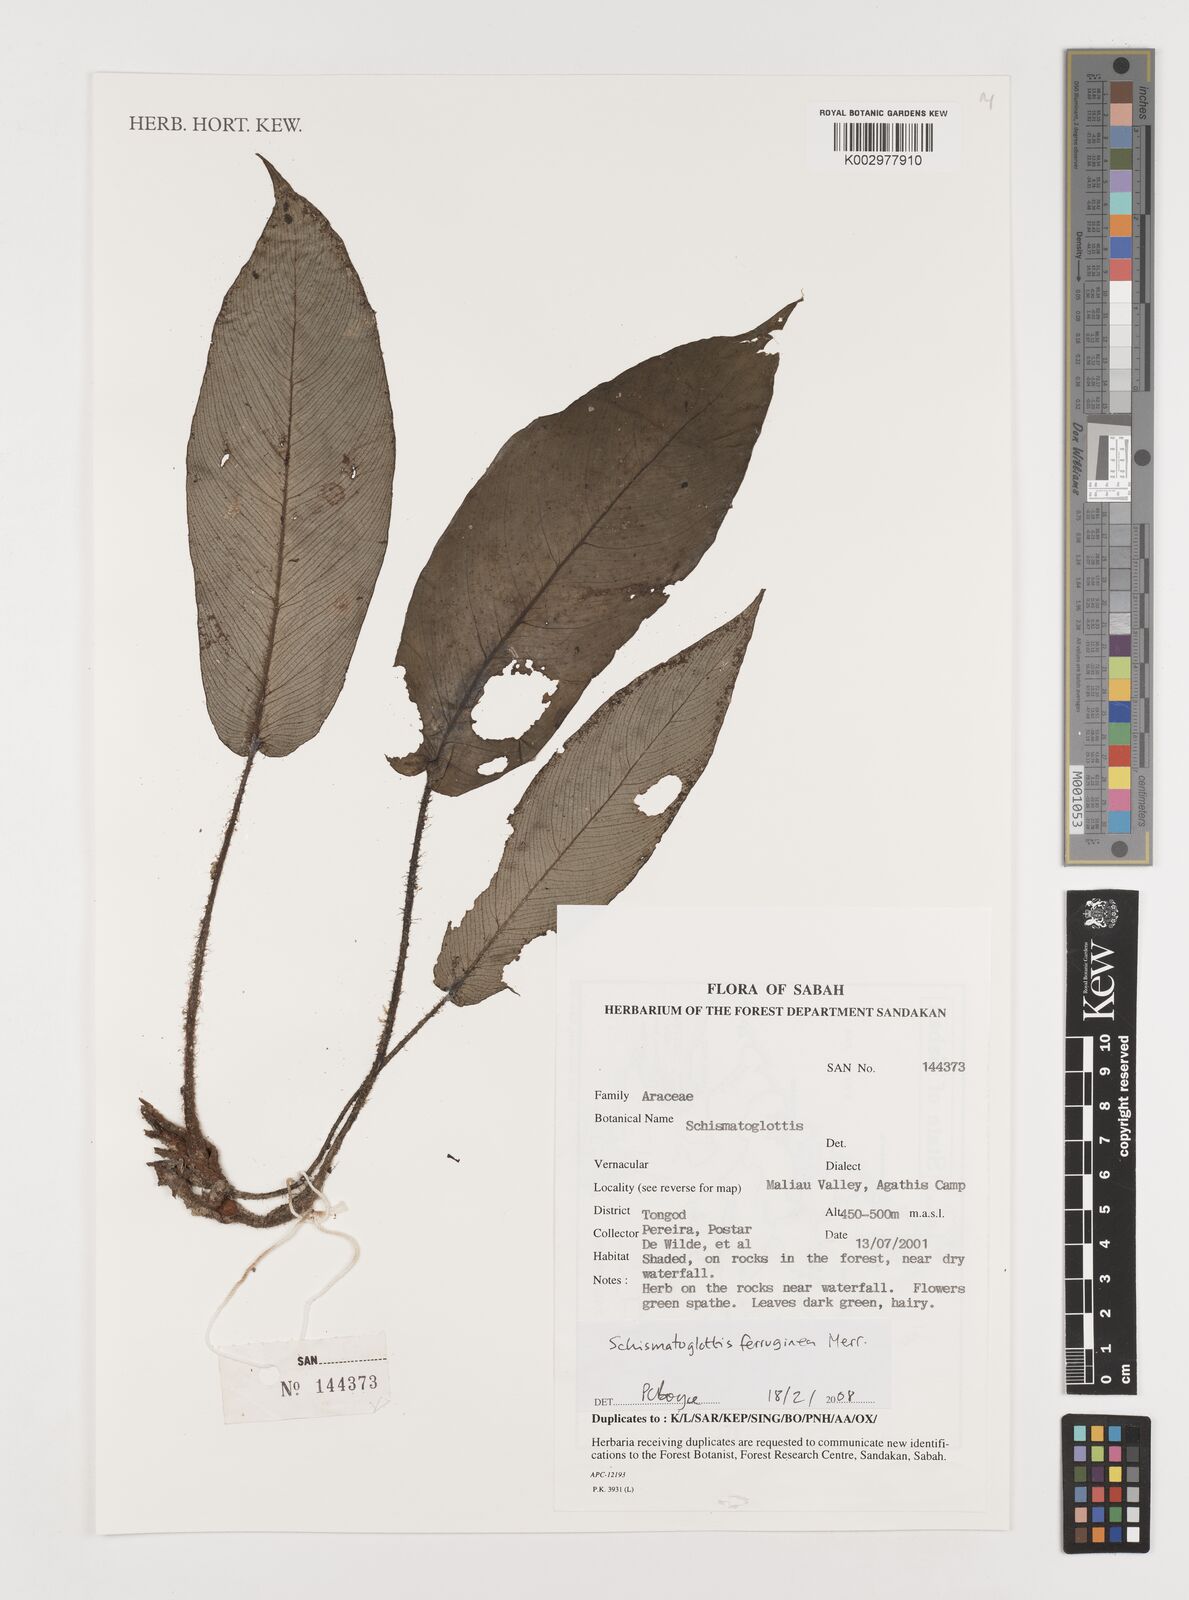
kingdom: Plantae
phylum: Tracheophyta
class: Liliopsida
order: Alismatales
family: Araceae
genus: Schismatoglottis
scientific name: Schismatoglottis ferruginea
